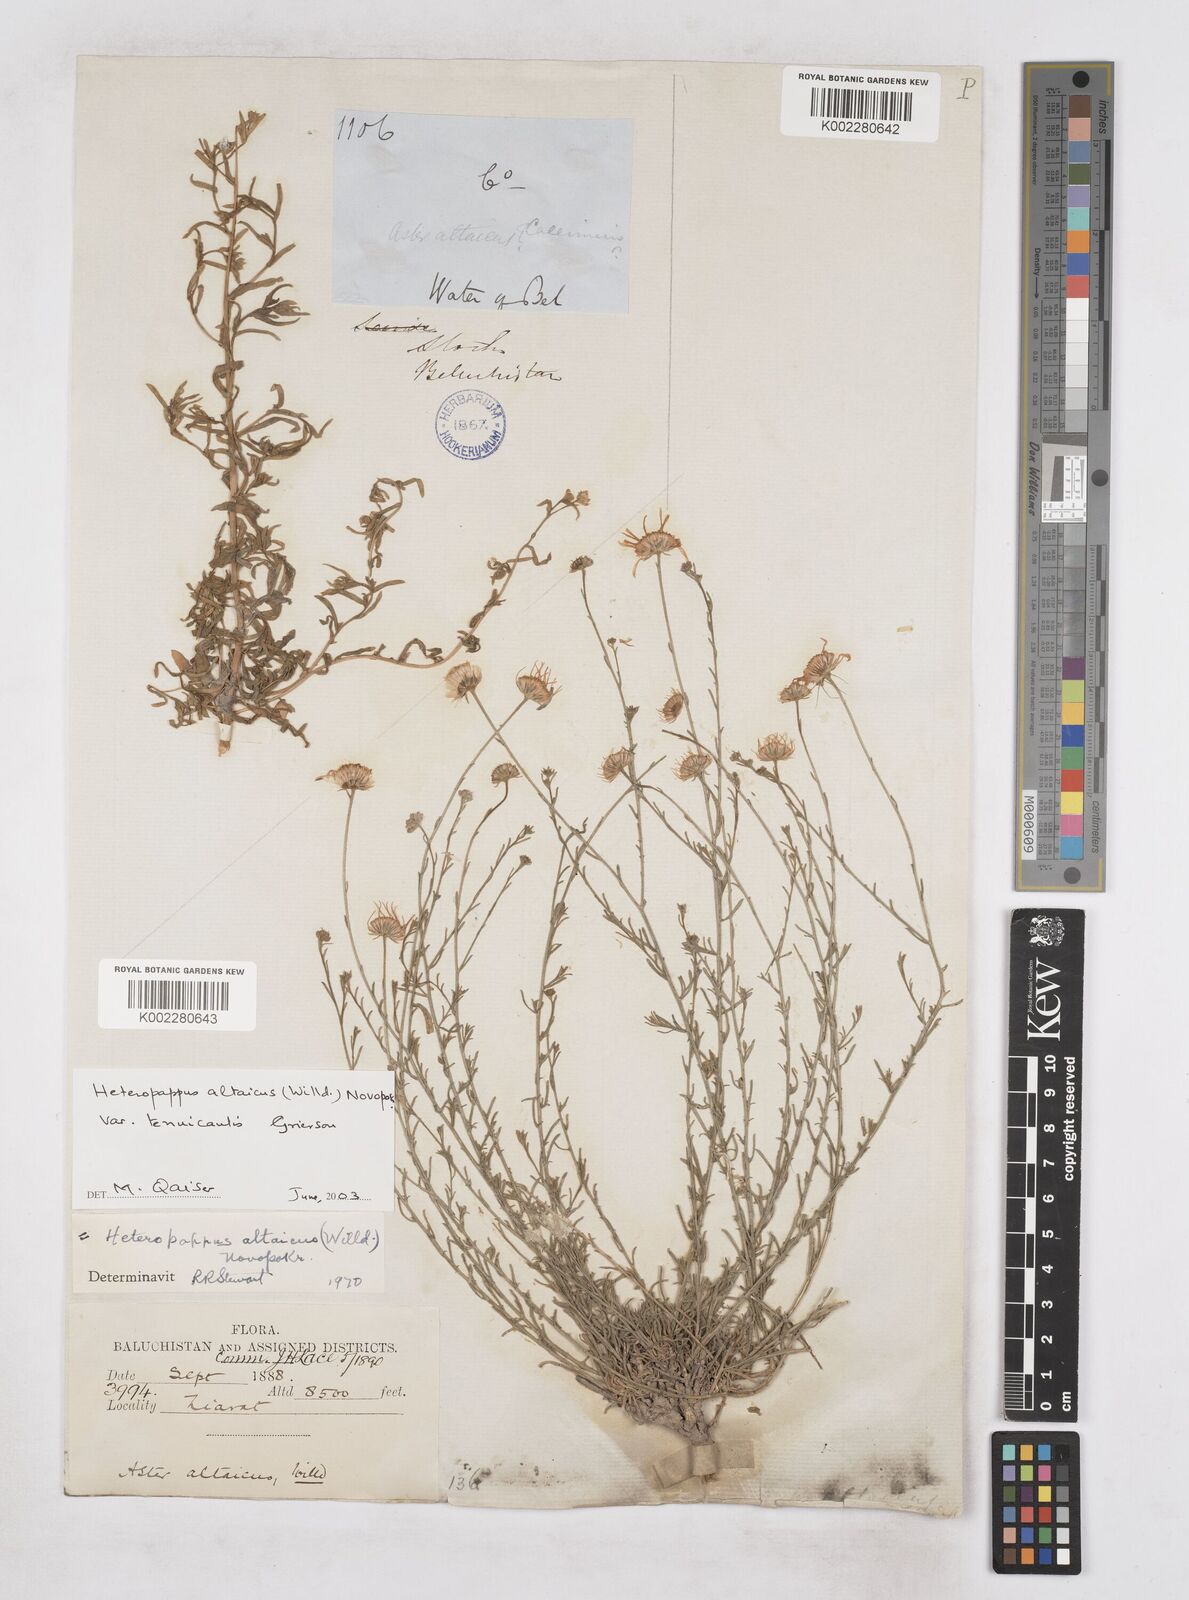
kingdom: Plantae
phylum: Tracheophyta
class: Magnoliopsida
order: Asterales
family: Asteraceae
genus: Heteropappus
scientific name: Heteropappus altaicus
